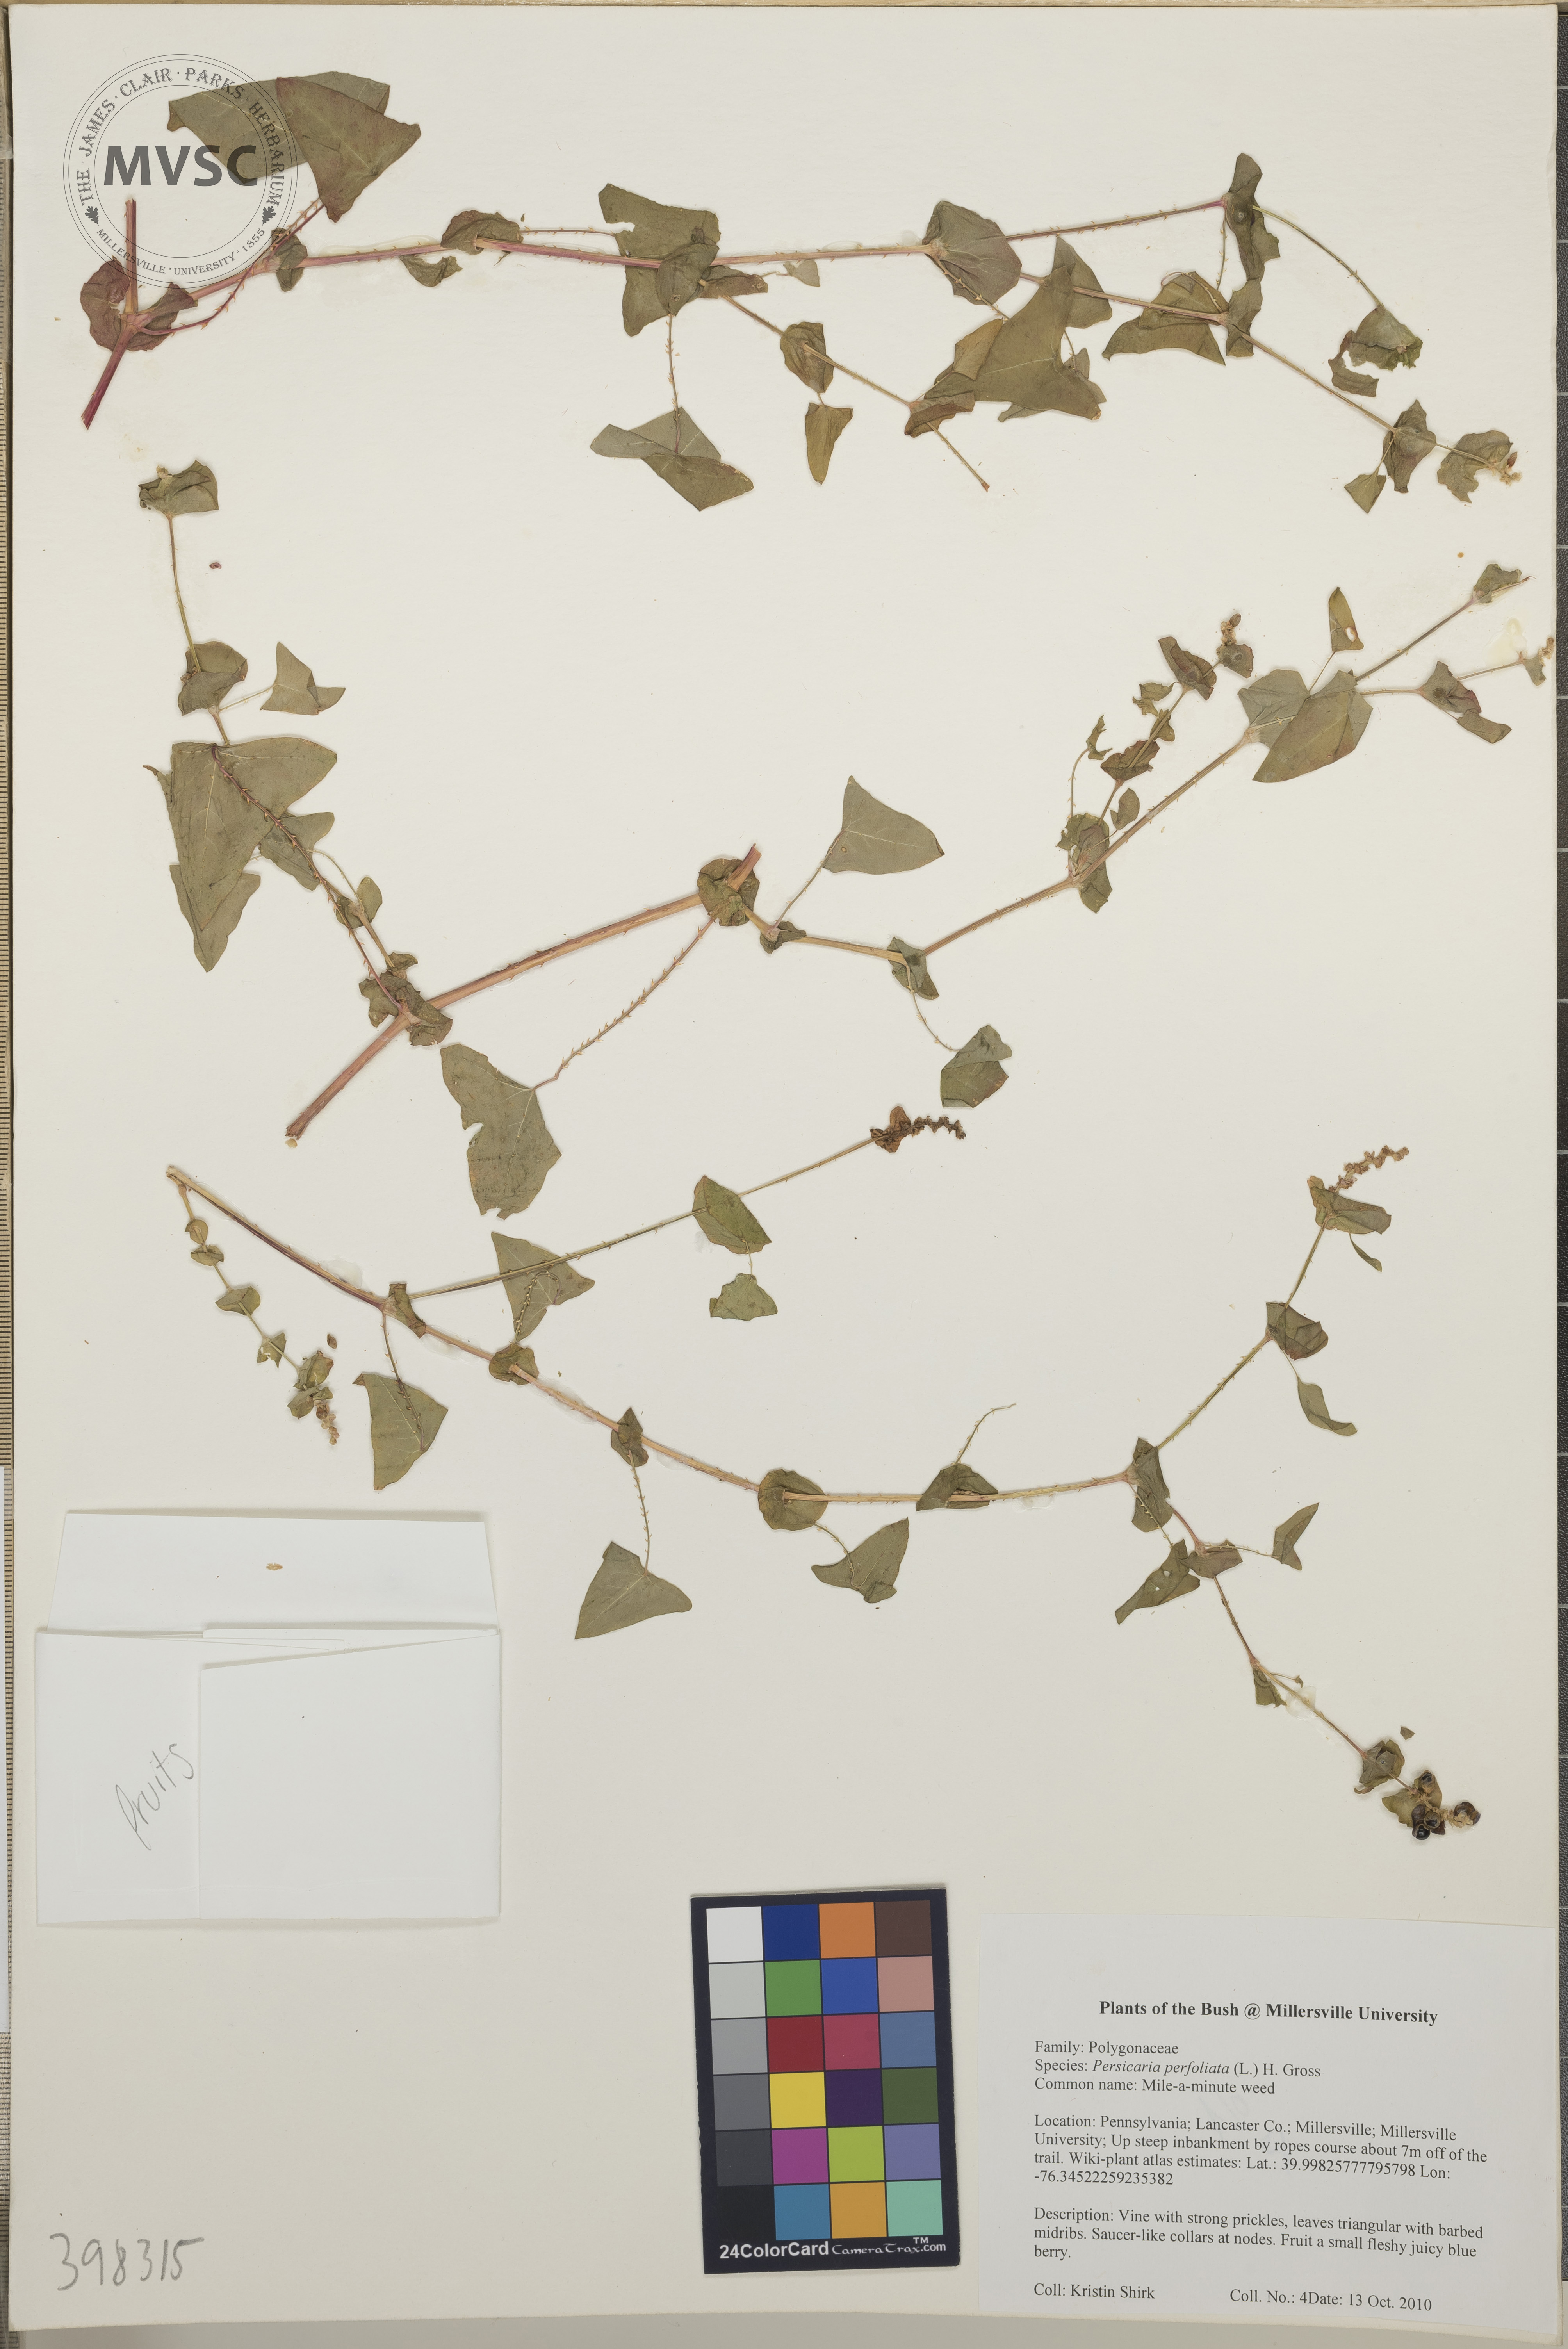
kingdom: Plantae
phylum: Tracheophyta
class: Magnoliopsida
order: Caryophyllales
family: Polygonaceae
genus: Persicaria
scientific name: Persicaria perfoliata
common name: Mile-a-minute weed
